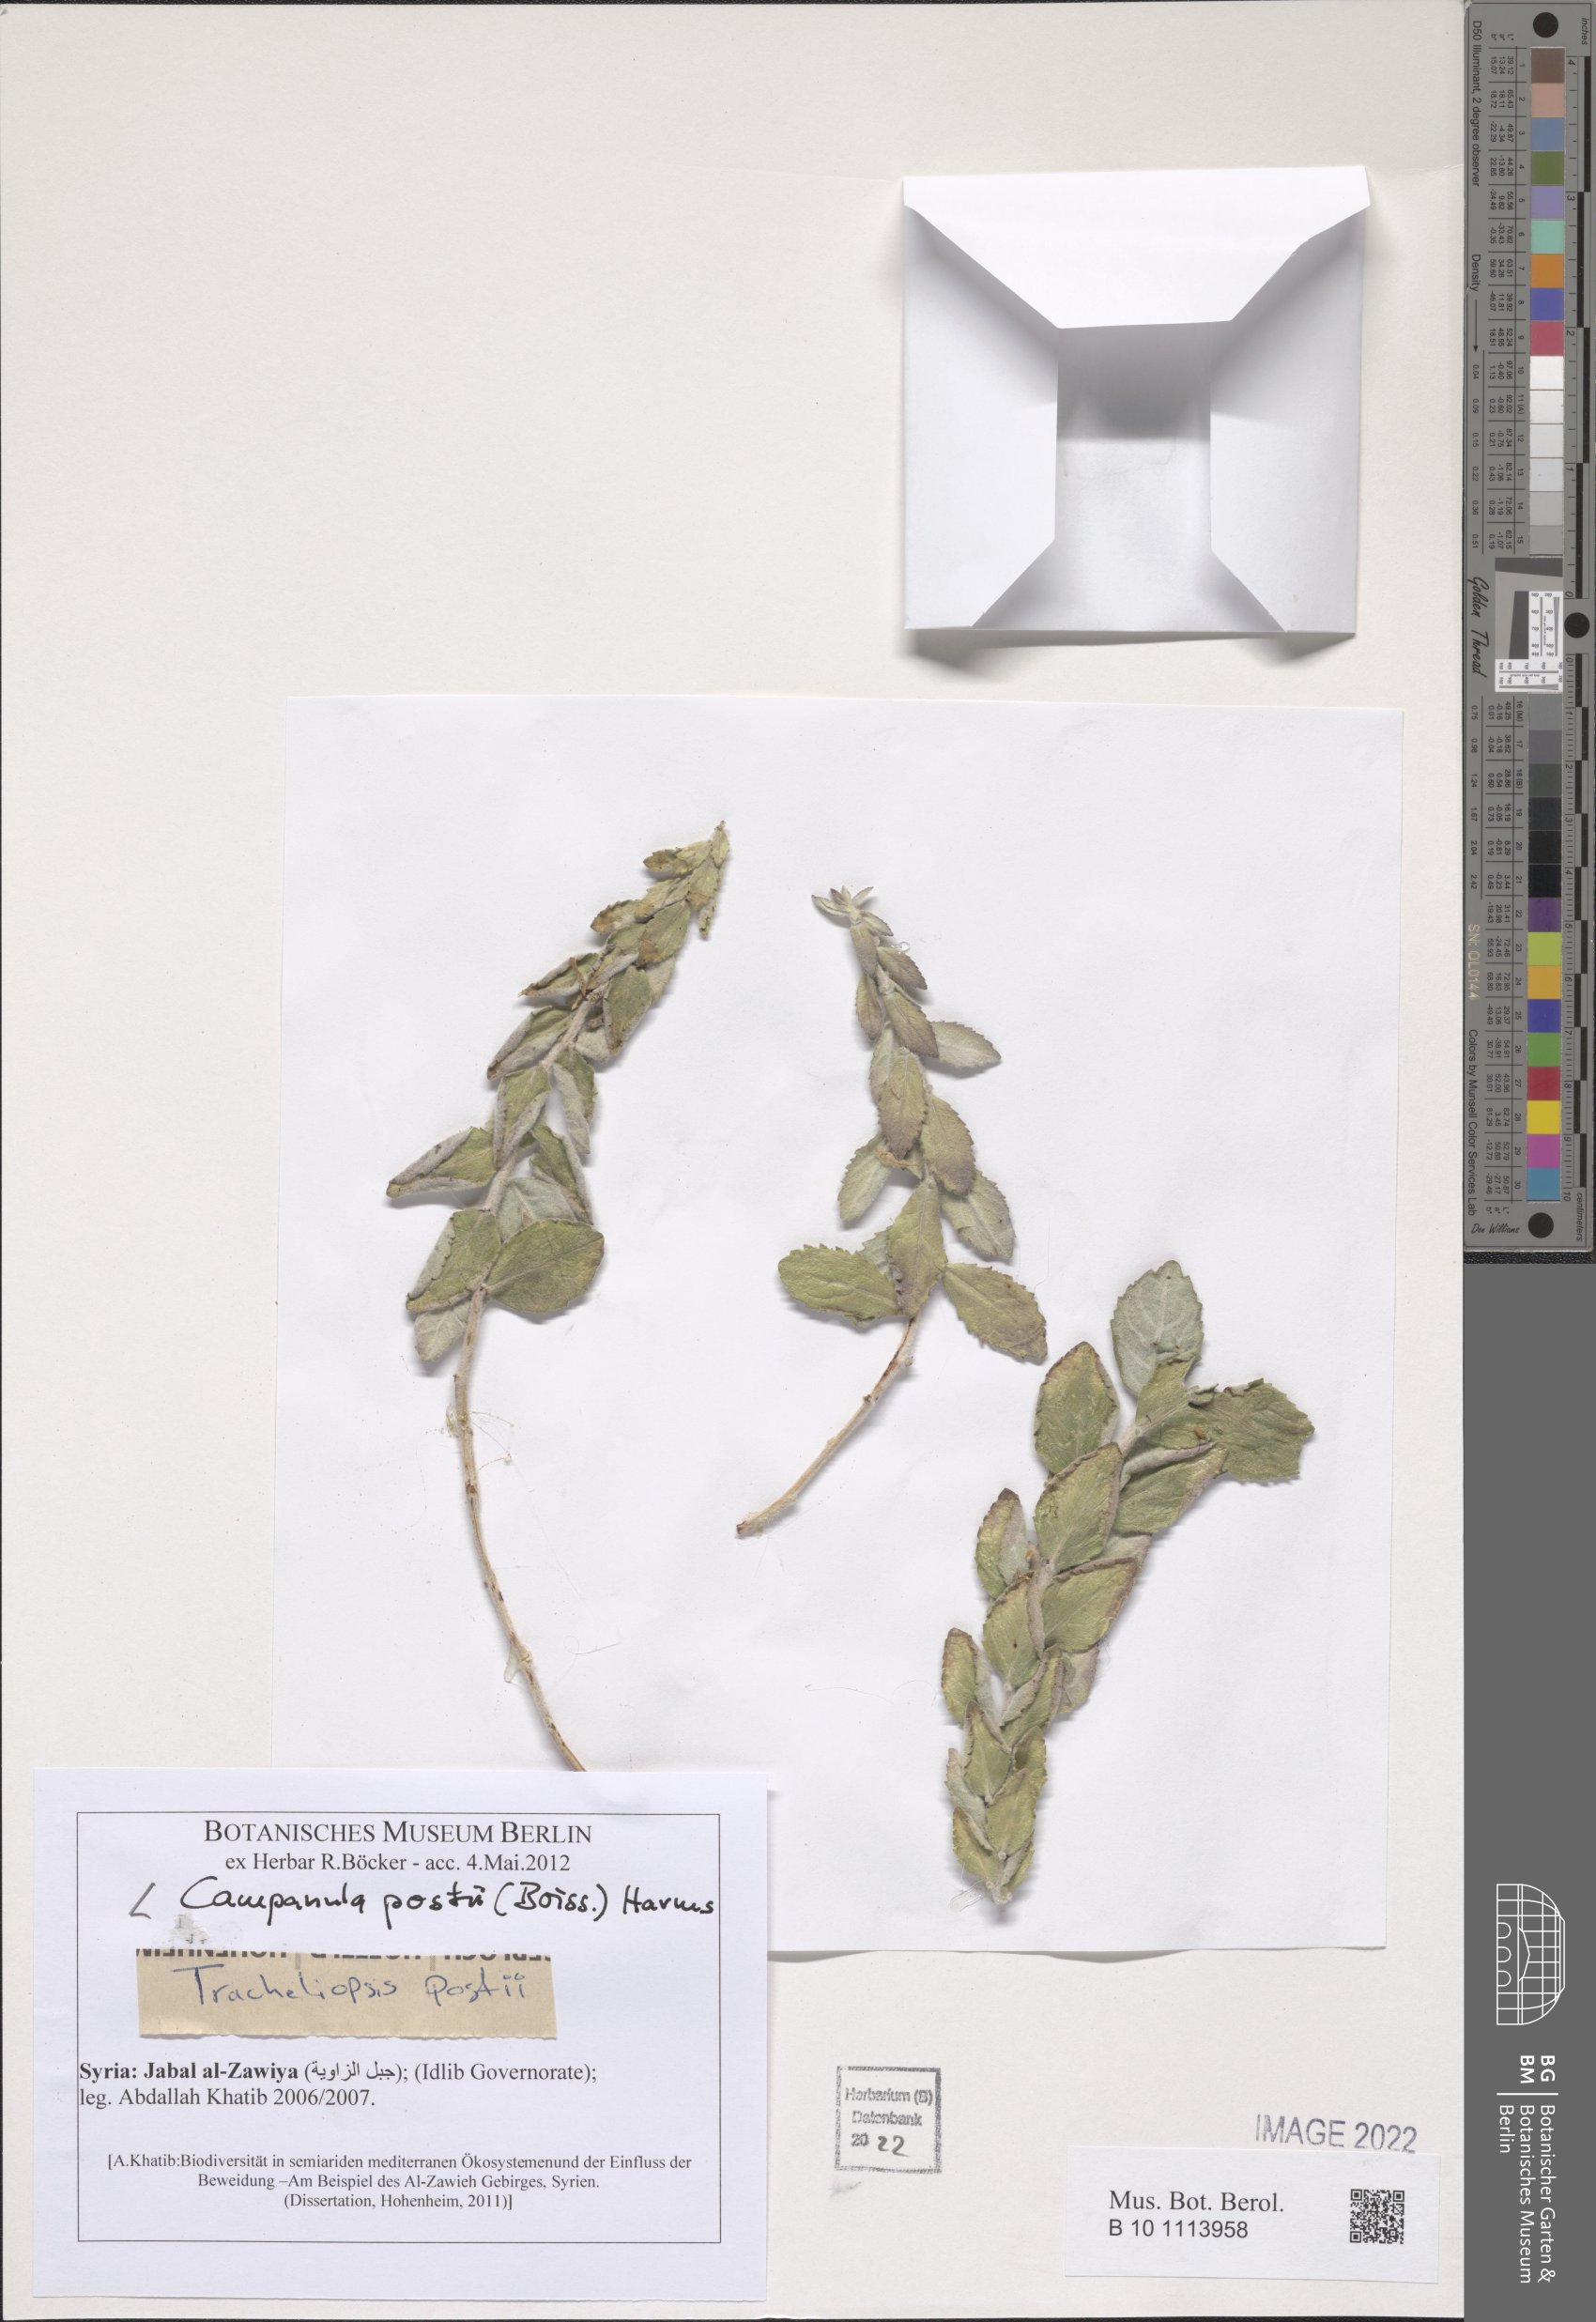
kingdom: Plantae
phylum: Tracheophyta
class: Magnoliopsida
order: Asterales
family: Campanulaceae
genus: Campanula
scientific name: Campanula postii
